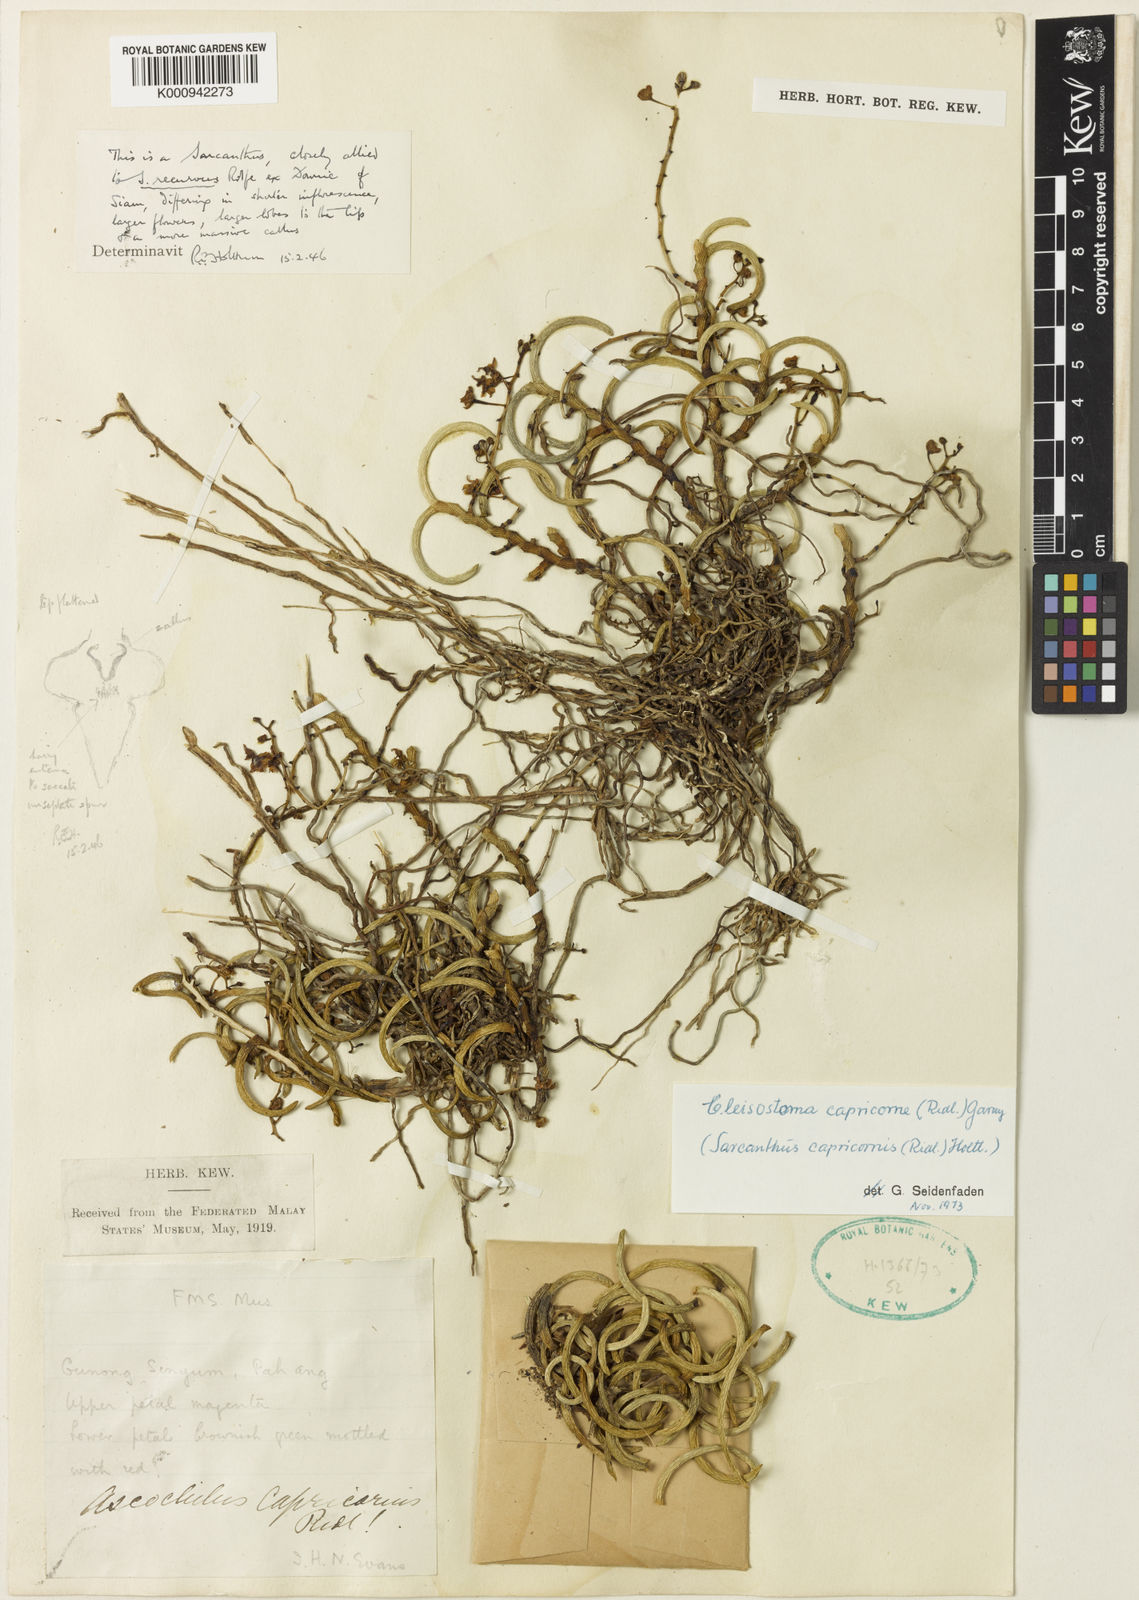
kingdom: Plantae
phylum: Tracheophyta
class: Liliopsida
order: Asparagales
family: Orchidaceae
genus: Cleisostoma
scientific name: Cleisostoma capricorne
